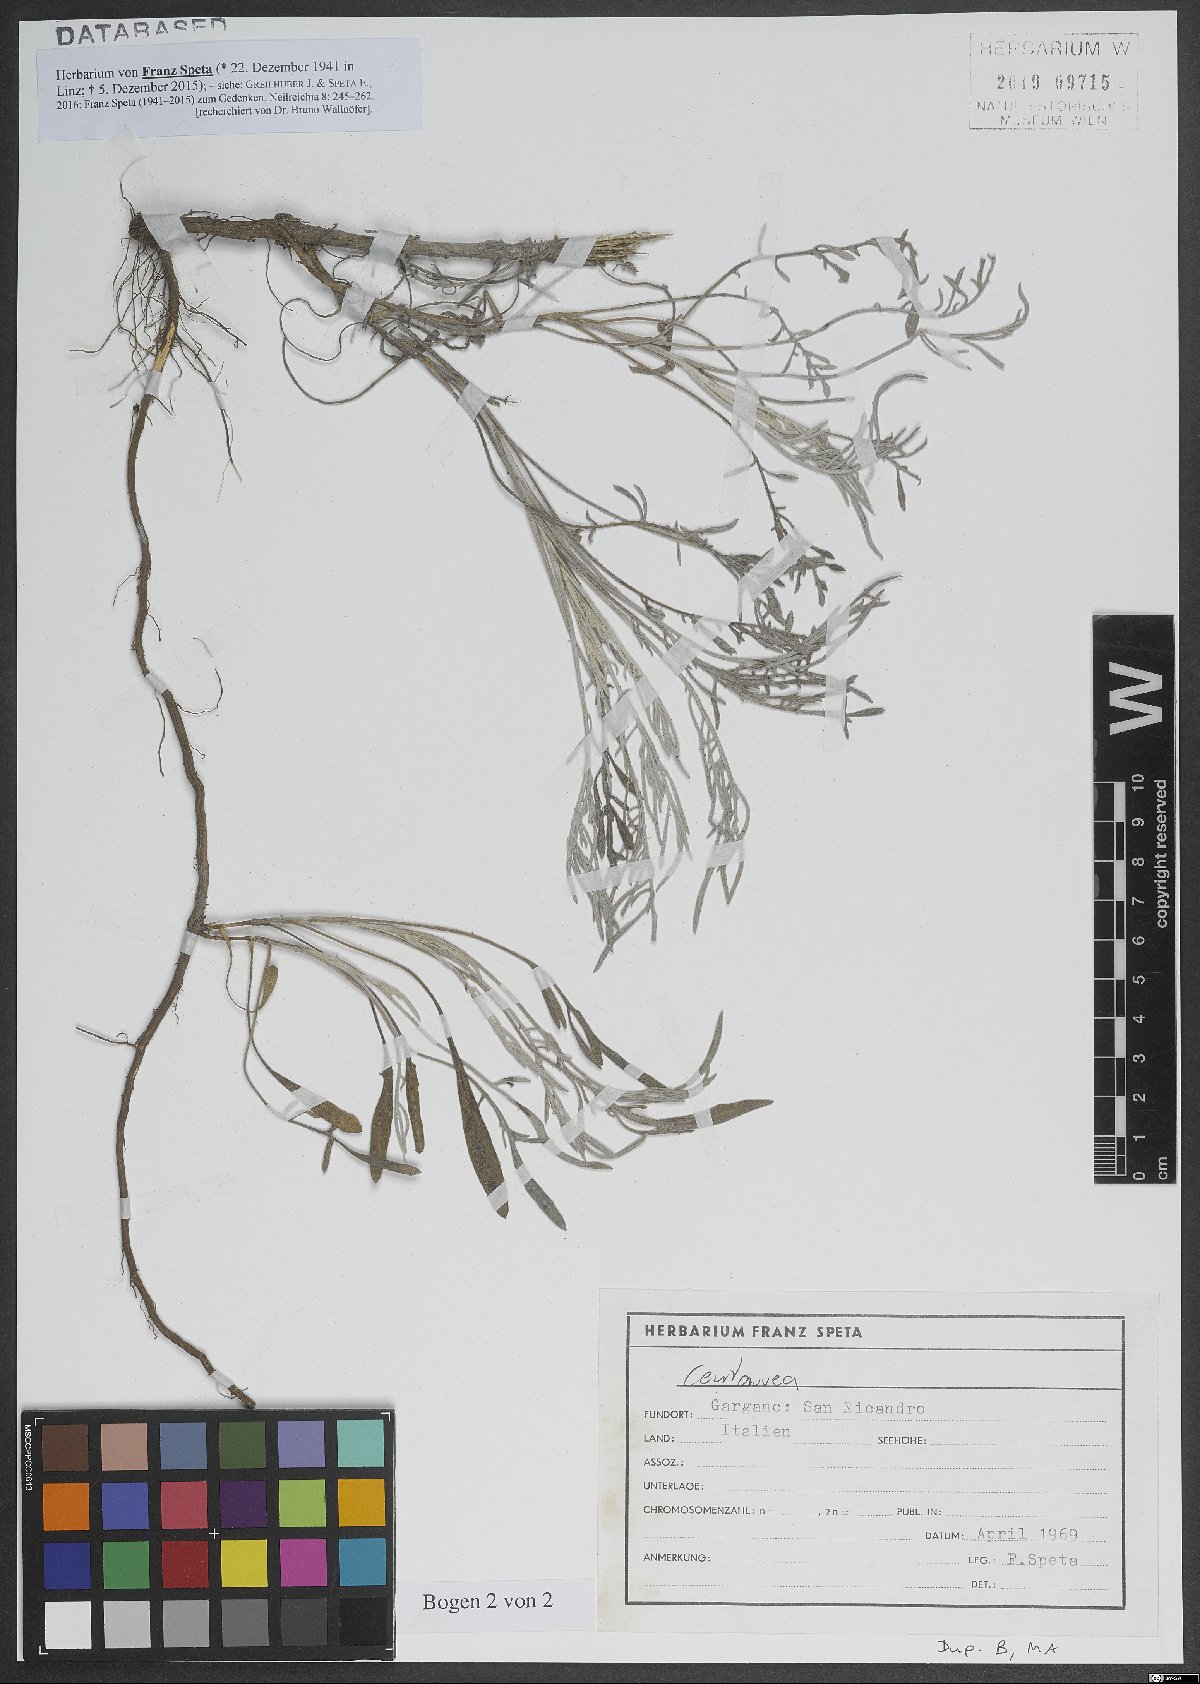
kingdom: Plantae
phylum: Tracheophyta
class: Magnoliopsida
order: Asterales
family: Asteraceae
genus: Centaurea
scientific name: Centaurea
